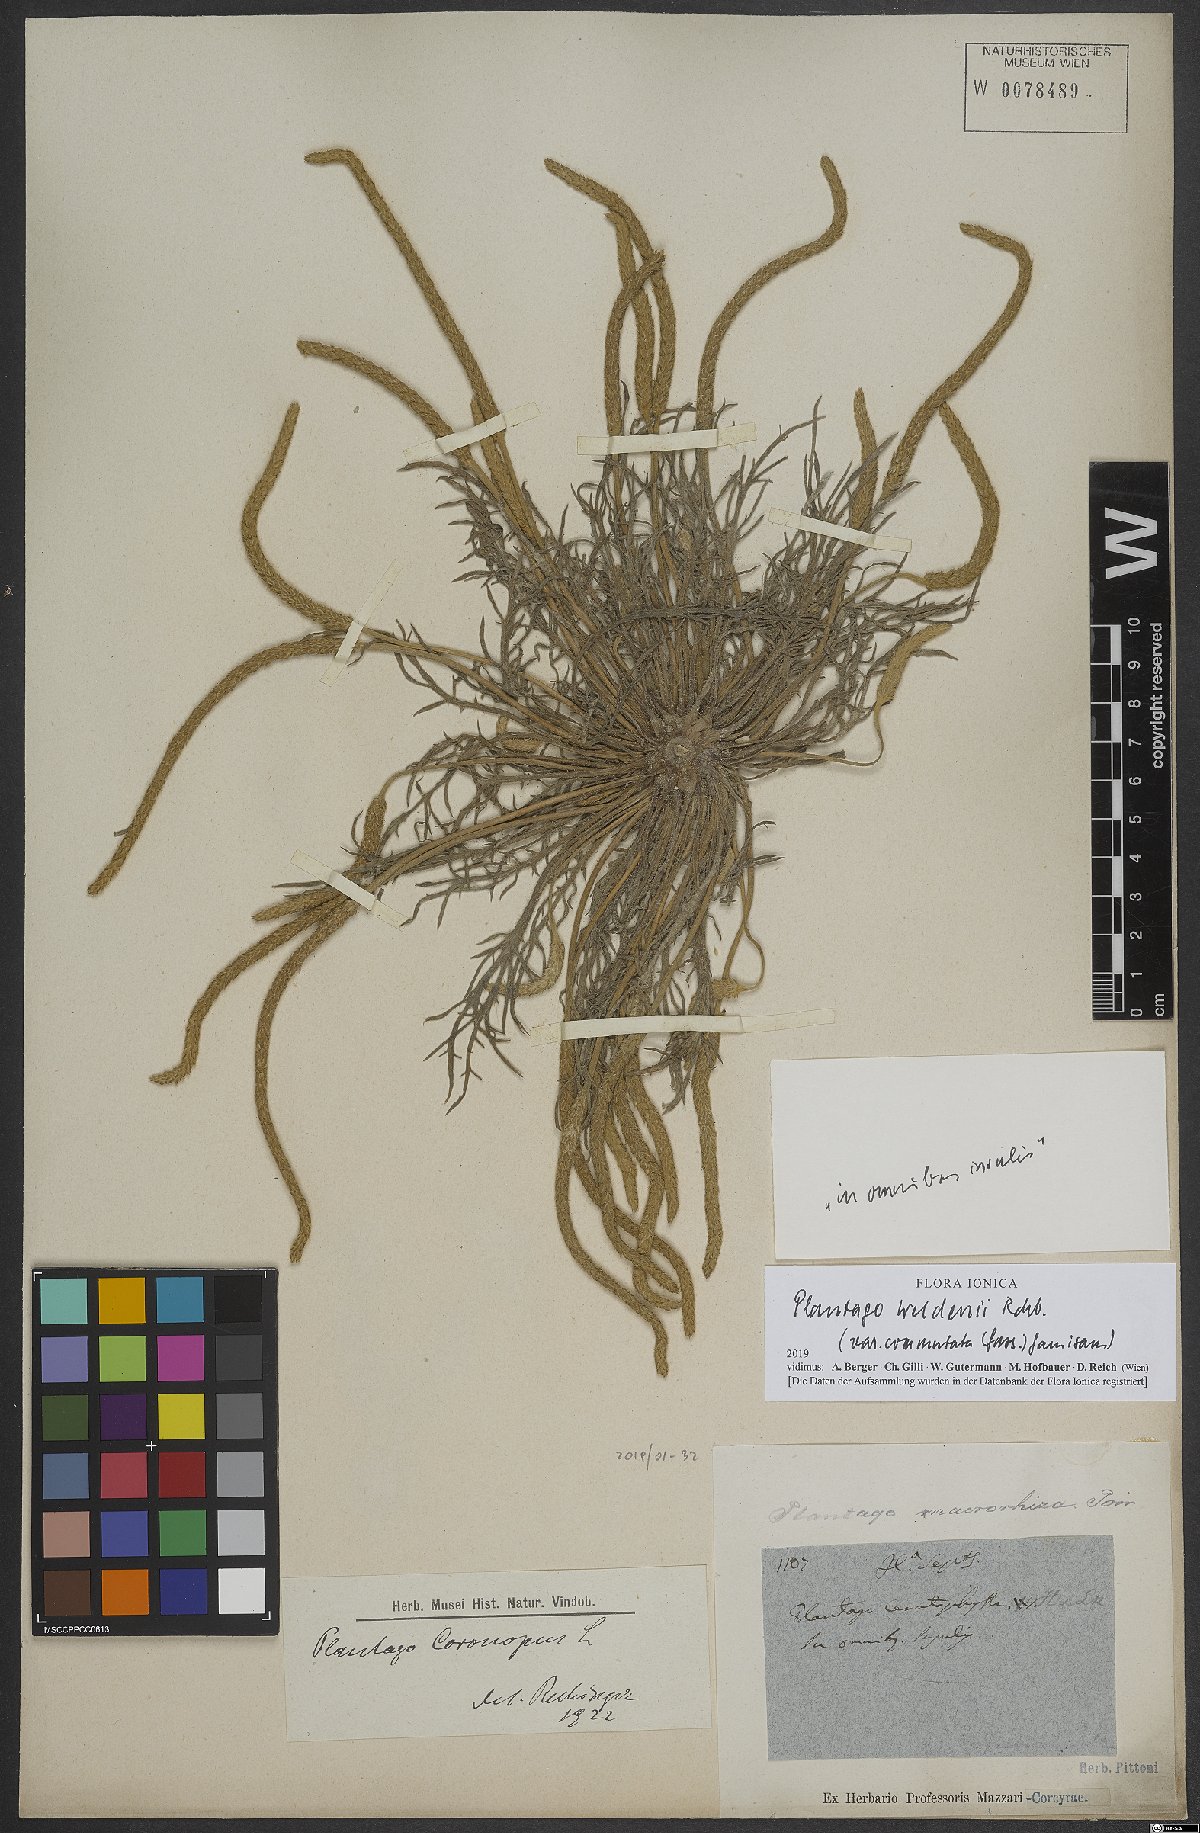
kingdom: Plantae
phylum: Tracheophyta
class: Magnoliopsida
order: Lamiales
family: Plantaginaceae
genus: Plantago
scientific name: Plantago weldenii
